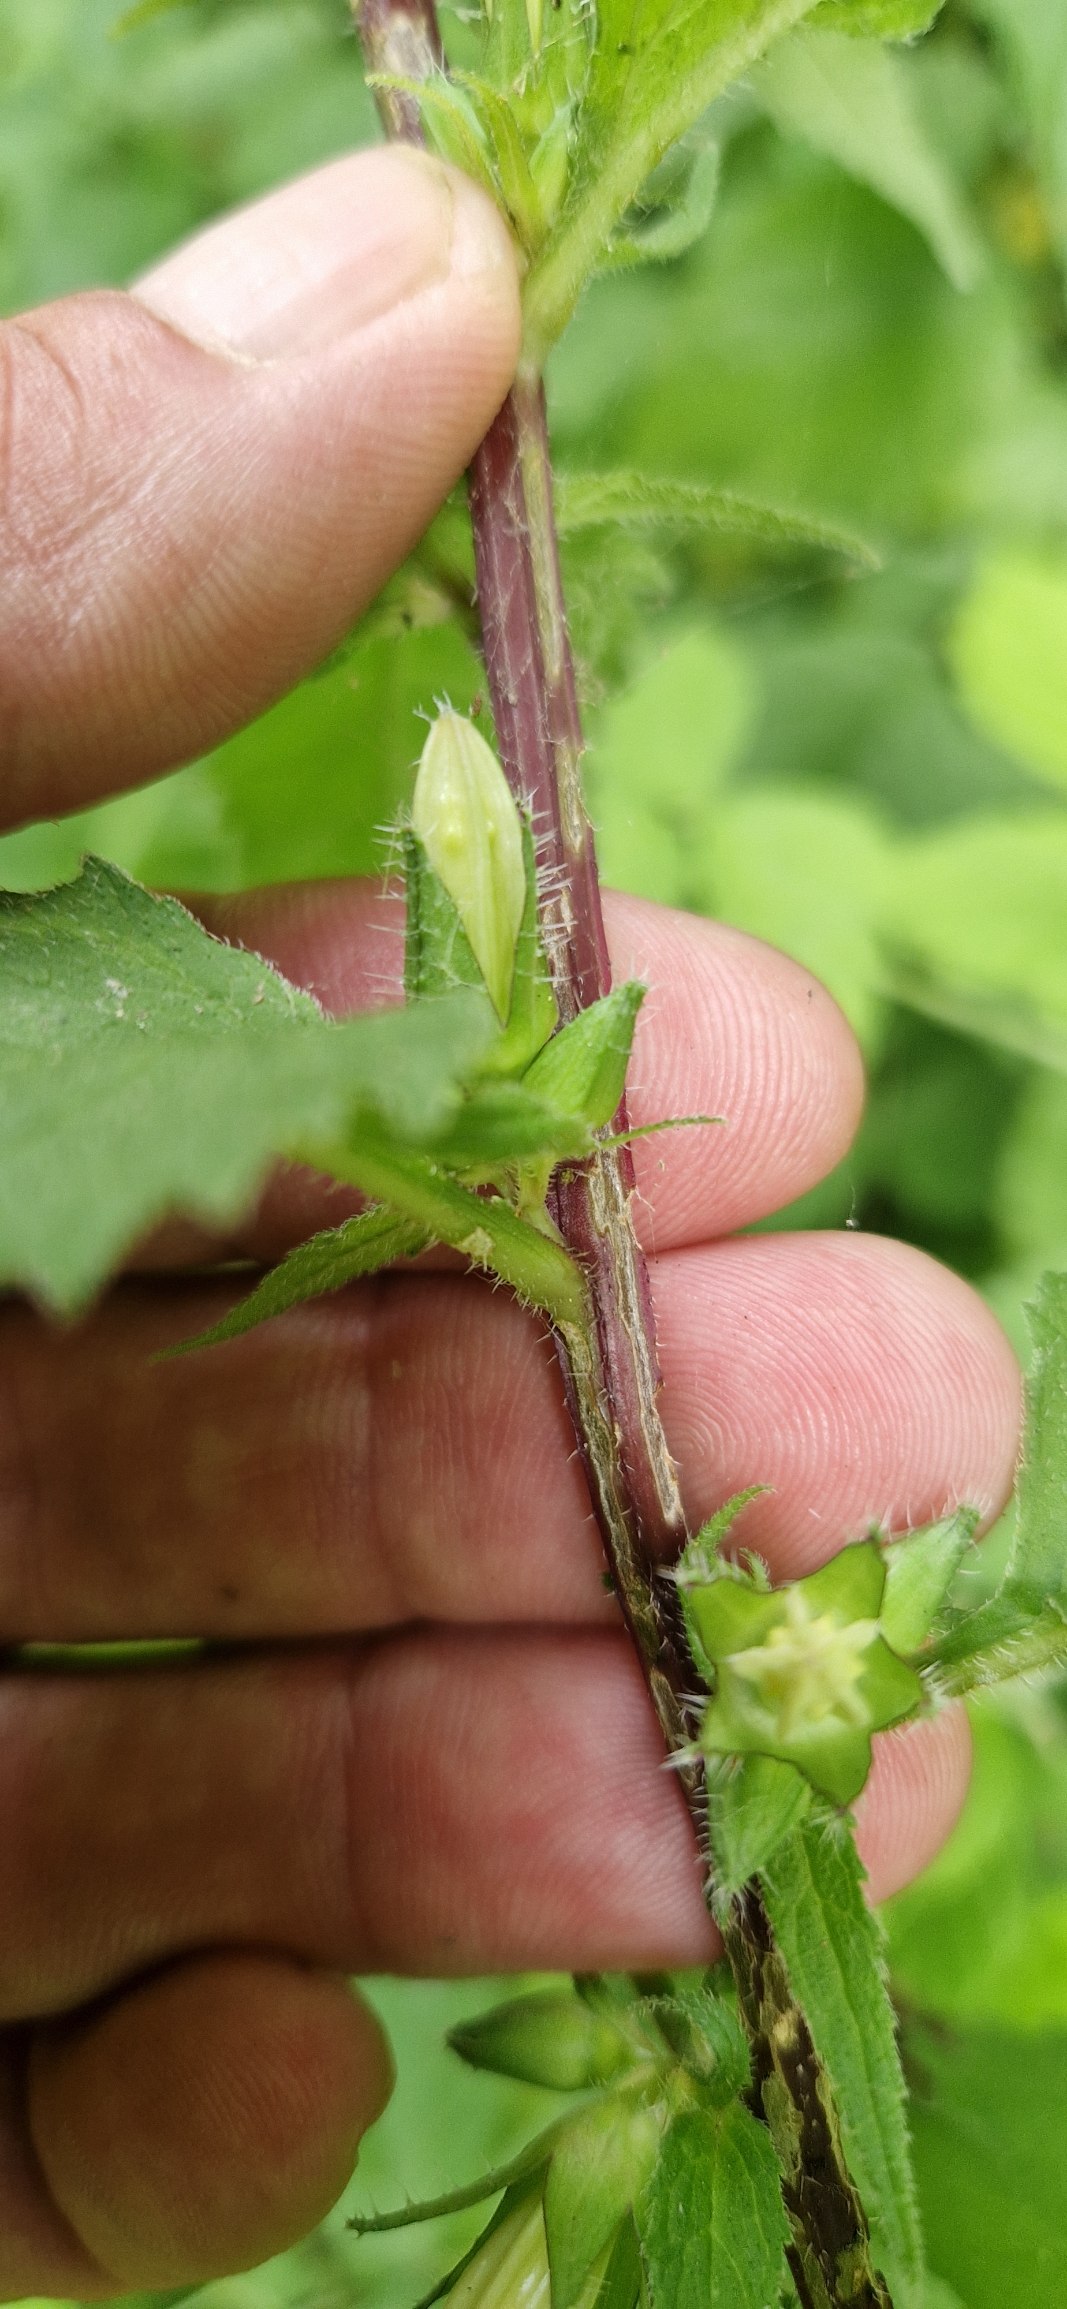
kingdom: Plantae
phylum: Tracheophyta
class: Magnoliopsida
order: Asterales
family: Campanulaceae
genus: Campanula
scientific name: Campanula trachelium
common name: Nælde-klokke
